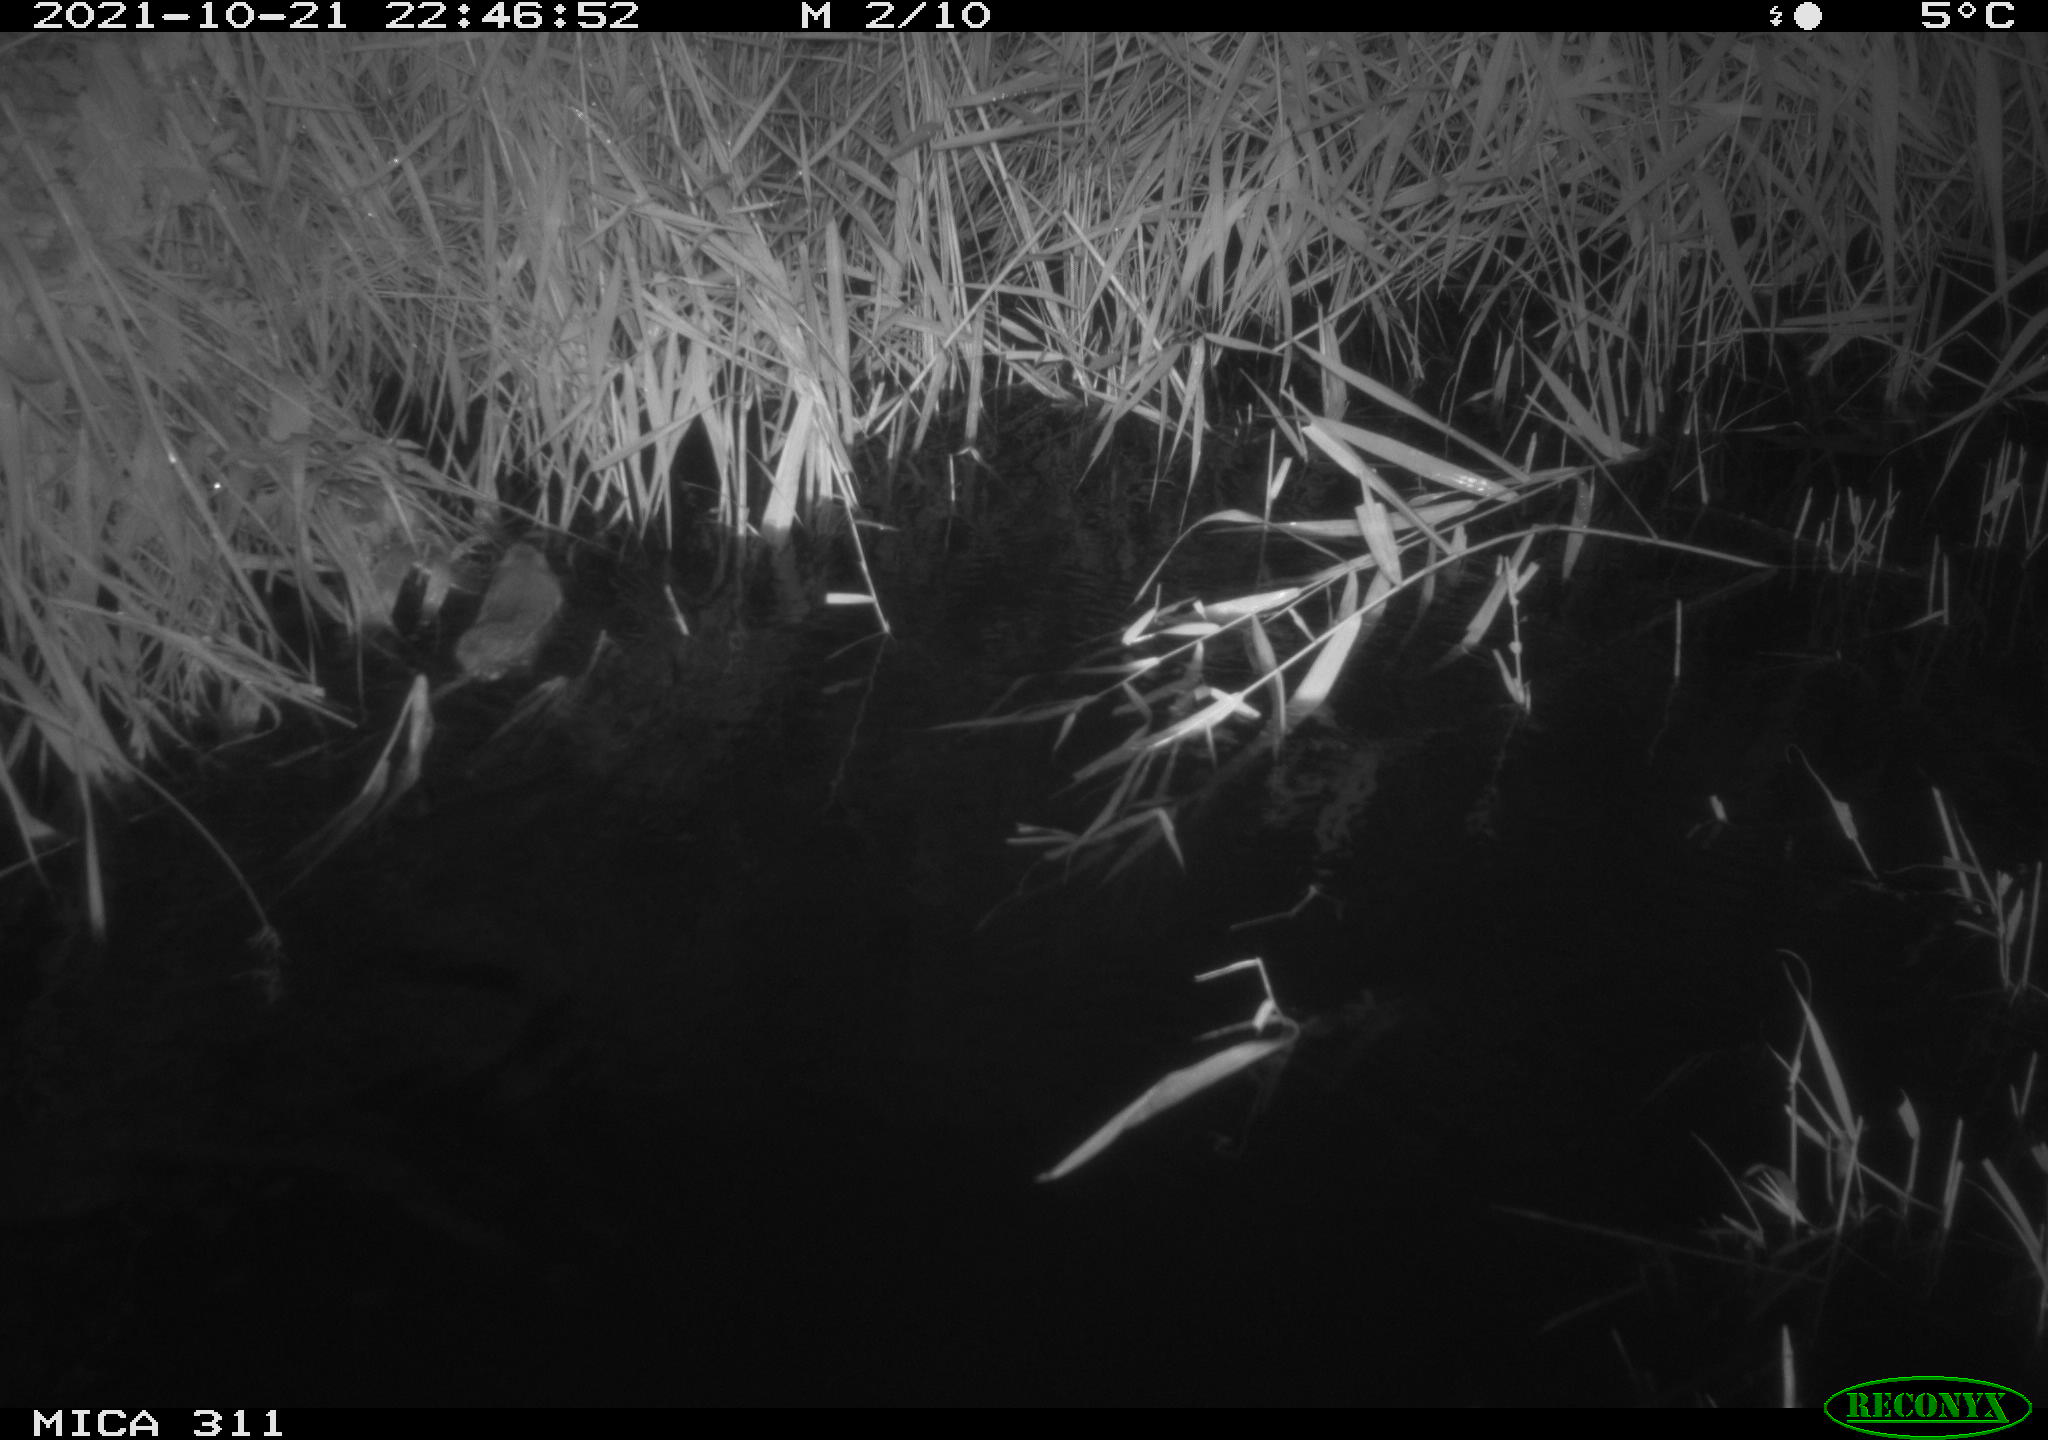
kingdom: Animalia
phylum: Chordata
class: Mammalia
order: Rodentia
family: Muridae
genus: Rattus
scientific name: Rattus norvegicus
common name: Brown rat
